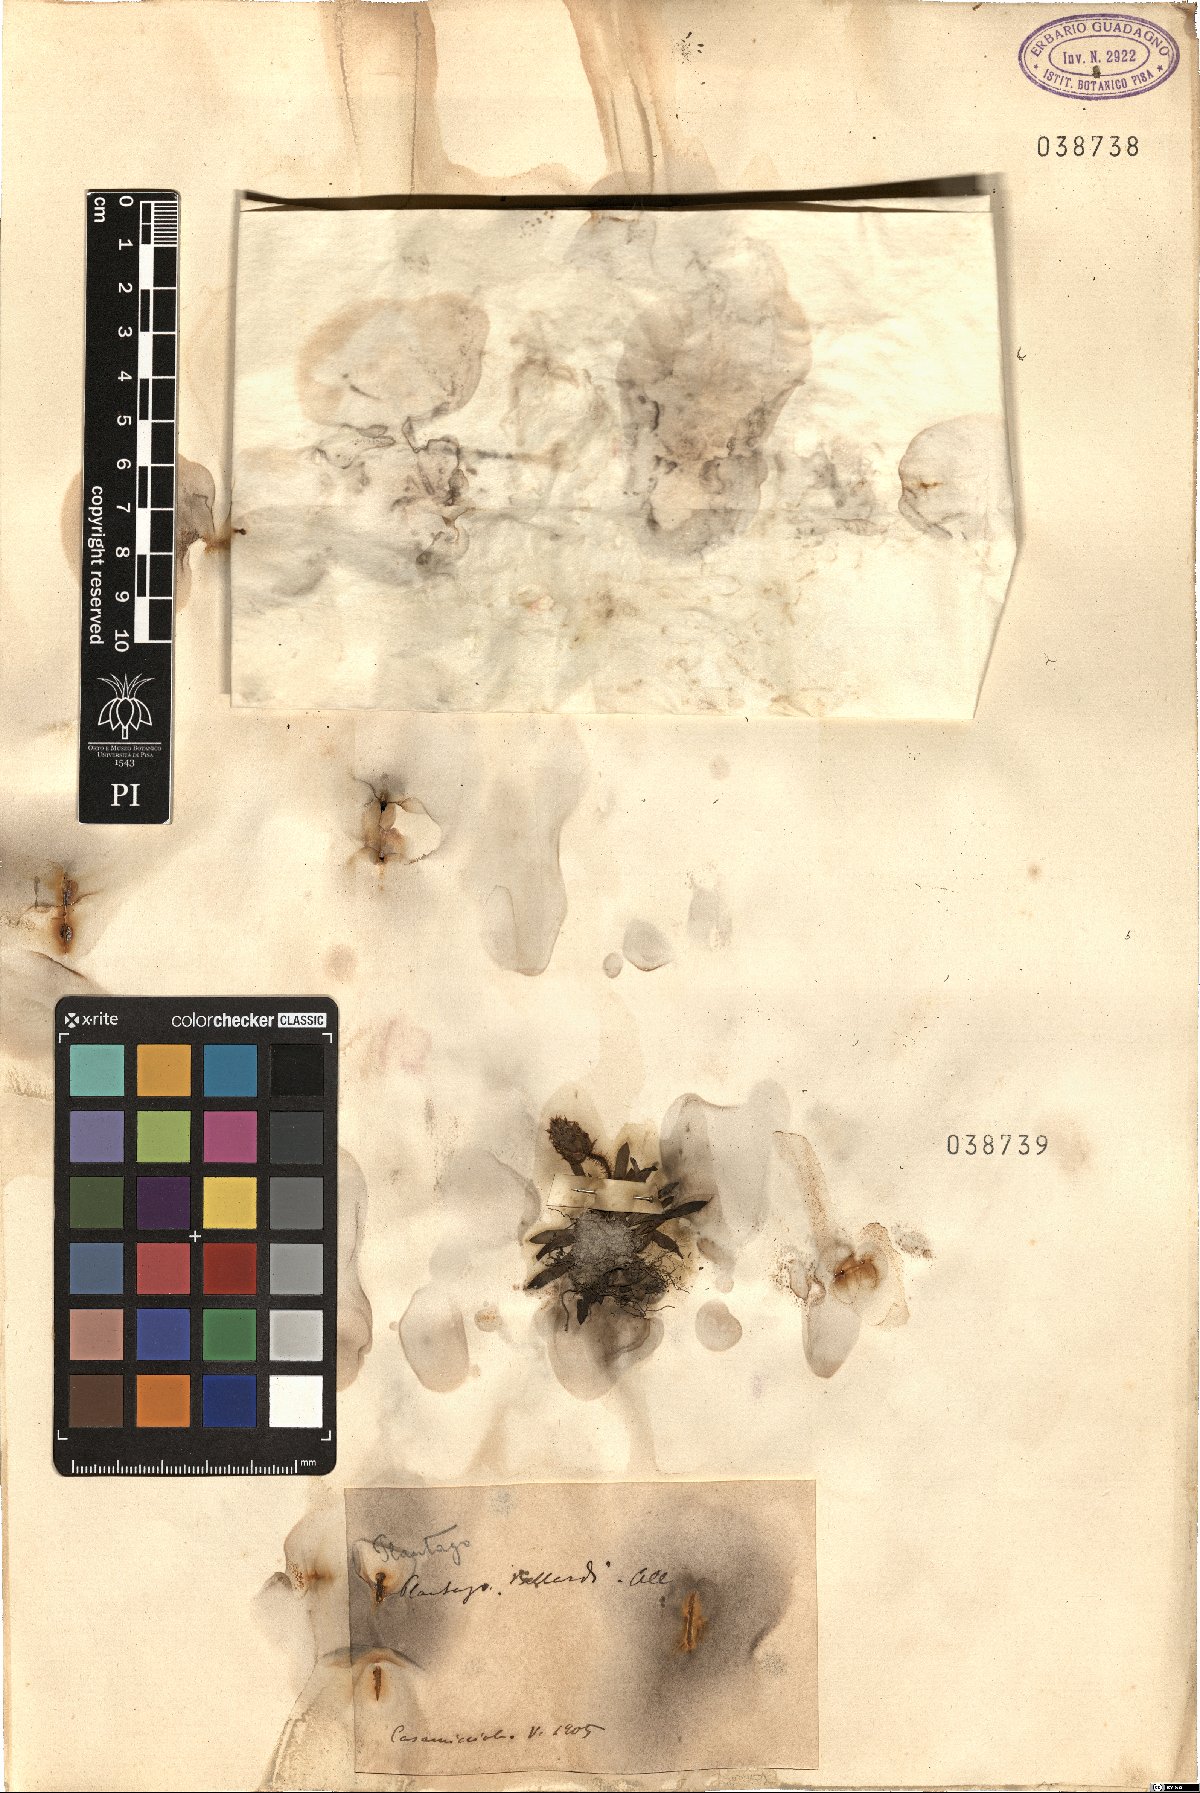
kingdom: Plantae
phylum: Tracheophyta
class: Magnoliopsida
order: Lamiales
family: Plantaginaceae
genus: Plantago
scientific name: Plantago bellardii
